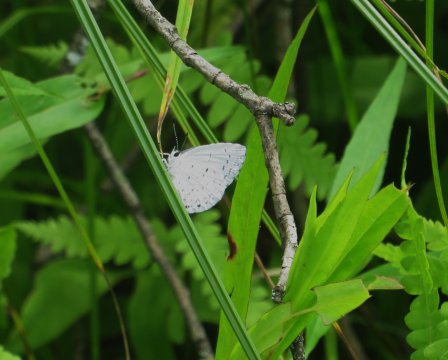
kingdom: Animalia
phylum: Arthropoda
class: Insecta
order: Lepidoptera
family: Lycaenidae
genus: Cyaniris
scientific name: Cyaniris neglecta
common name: Summer Azure
